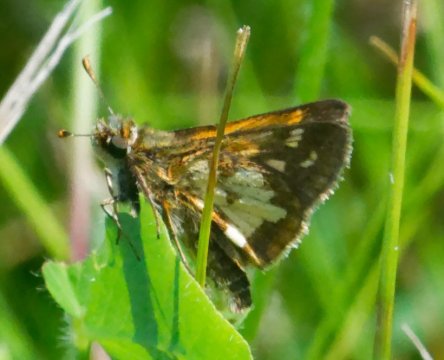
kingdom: Animalia
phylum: Arthropoda
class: Insecta
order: Lepidoptera
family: Hesperiidae
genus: Polites
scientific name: Polites coras
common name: Peck's Skipper
